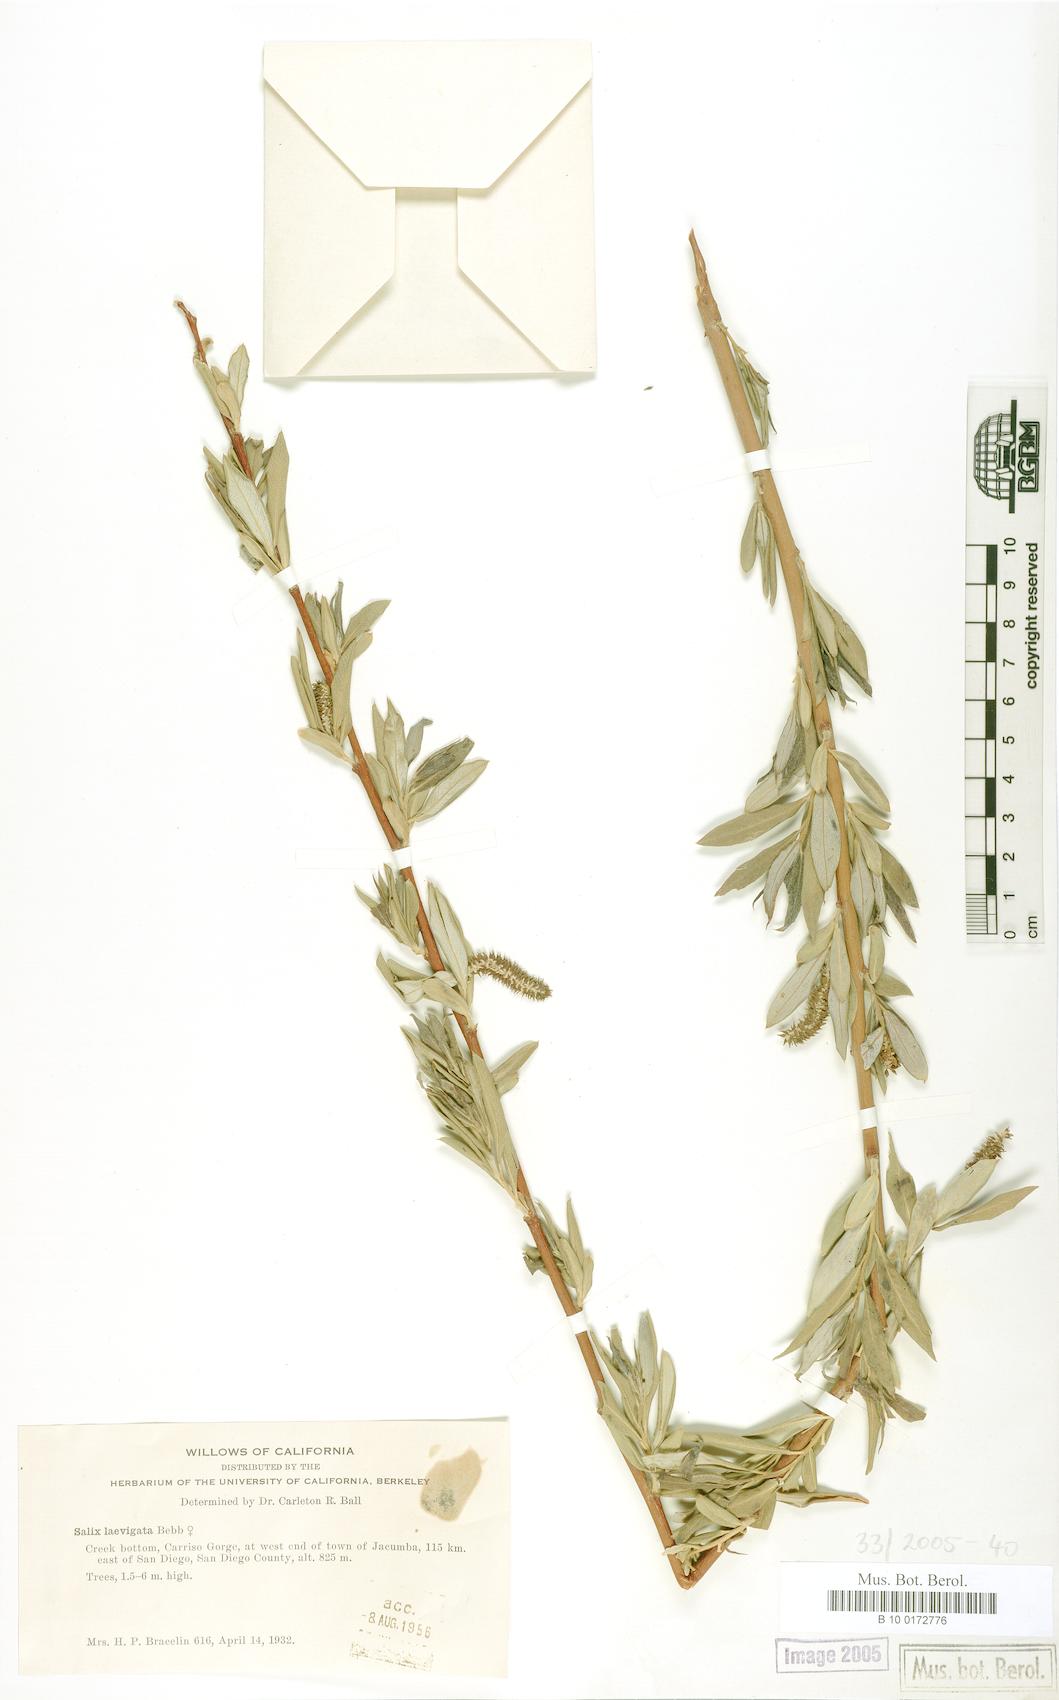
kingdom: Plantae
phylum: Tracheophyta
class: Magnoliopsida
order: Malpighiales
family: Salicaceae
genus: Salix
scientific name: Salix laevigata
